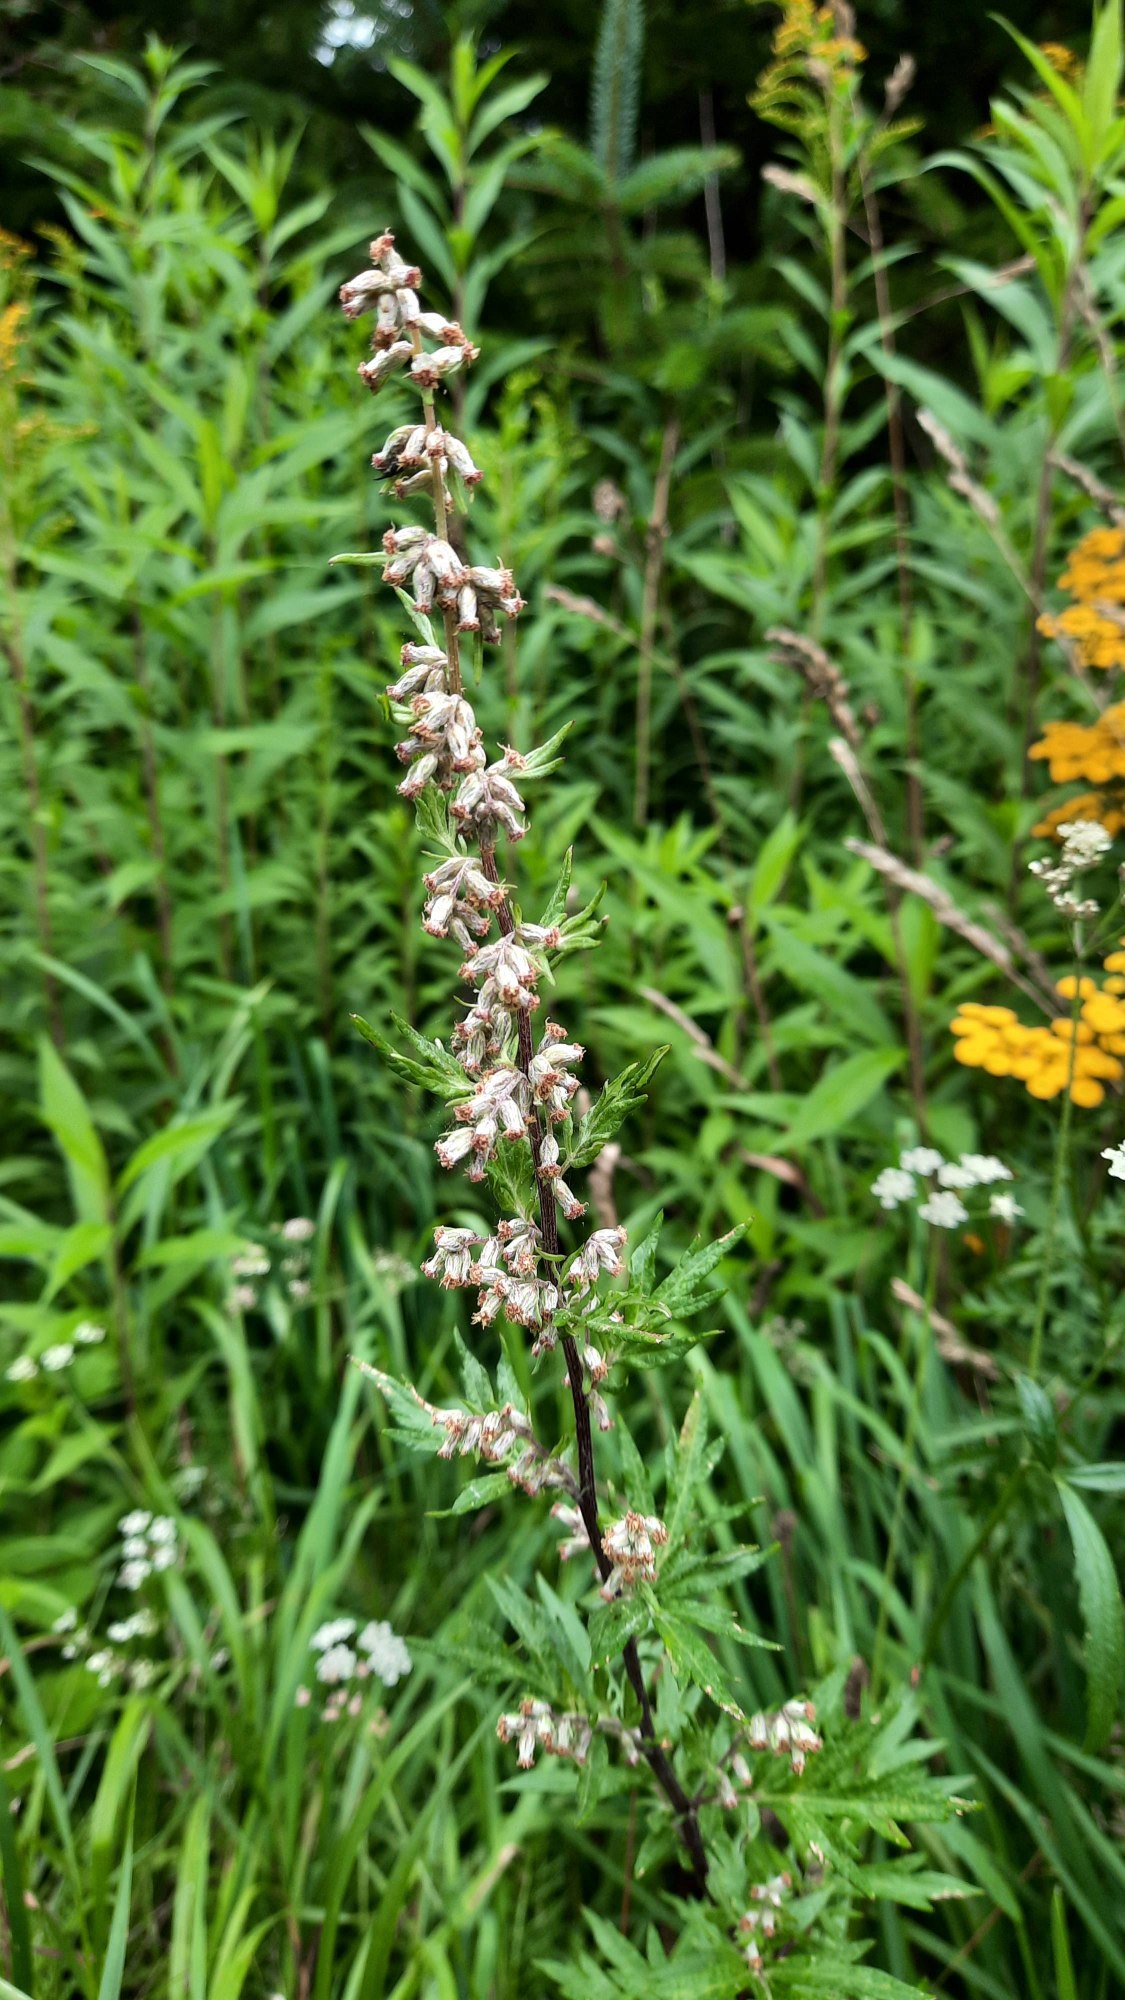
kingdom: Plantae
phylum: Tracheophyta
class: Magnoliopsida
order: Asterales
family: Asteraceae
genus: Artemisia
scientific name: Artemisia vulgaris
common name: Grå-bynke
